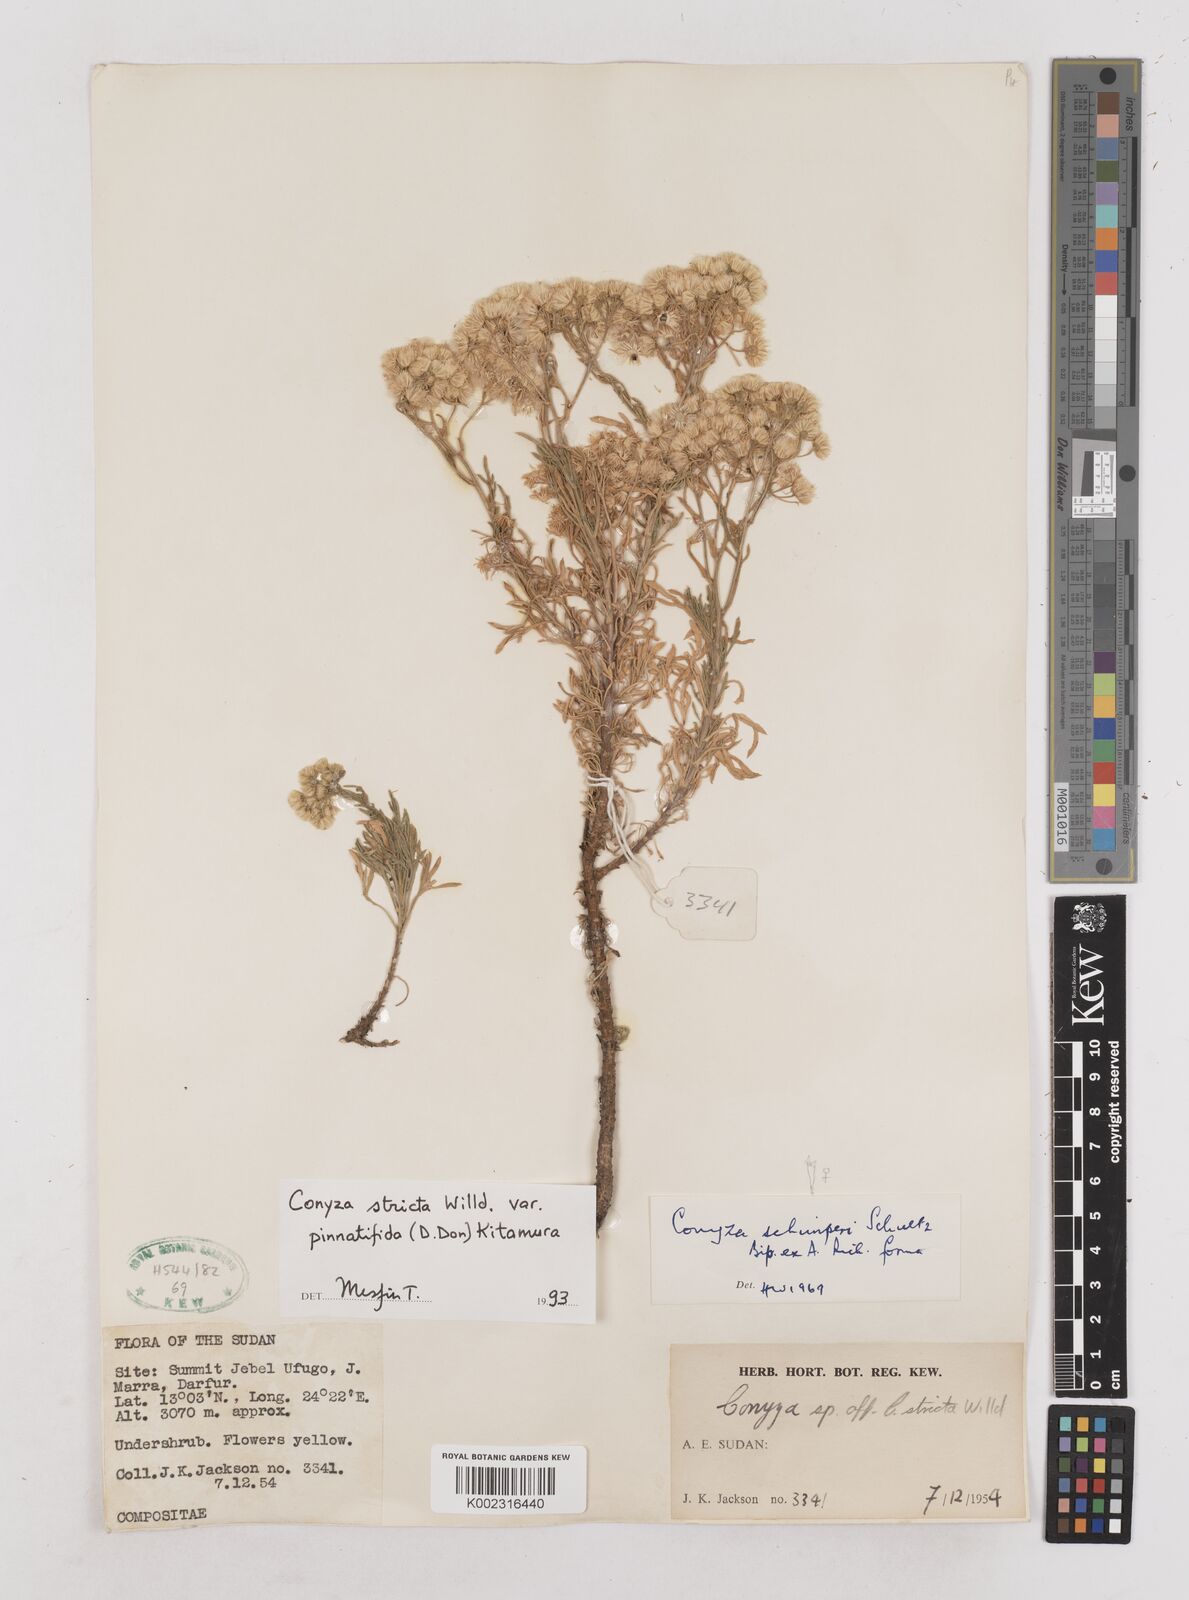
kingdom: Plantae
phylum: Tracheophyta
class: Magnoliopsida
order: Asterales
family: Asteraceae
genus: Nidorella
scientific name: Nidorella triloba
